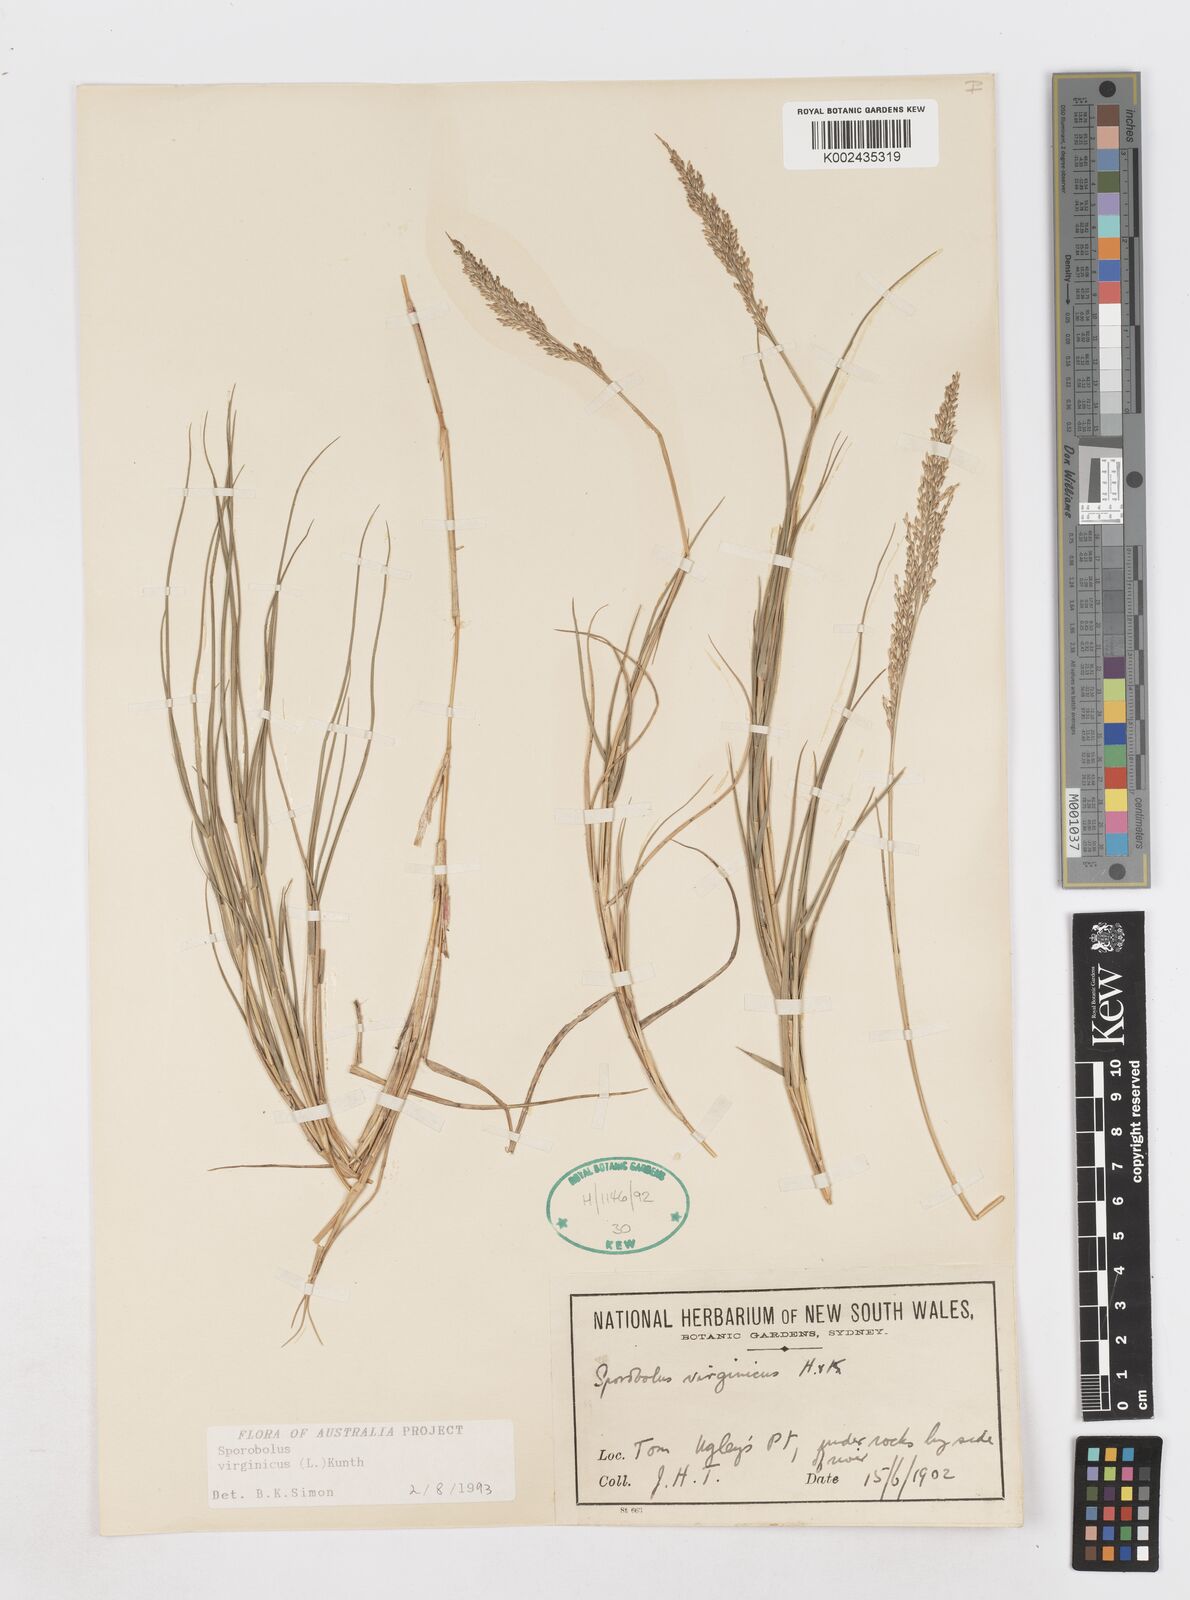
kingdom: Plantae
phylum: Tracheophyta
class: Liliopsida
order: Poales
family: Poaceae
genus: Sporobolus
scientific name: Sporobolus virginicus
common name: Beach dropseed
